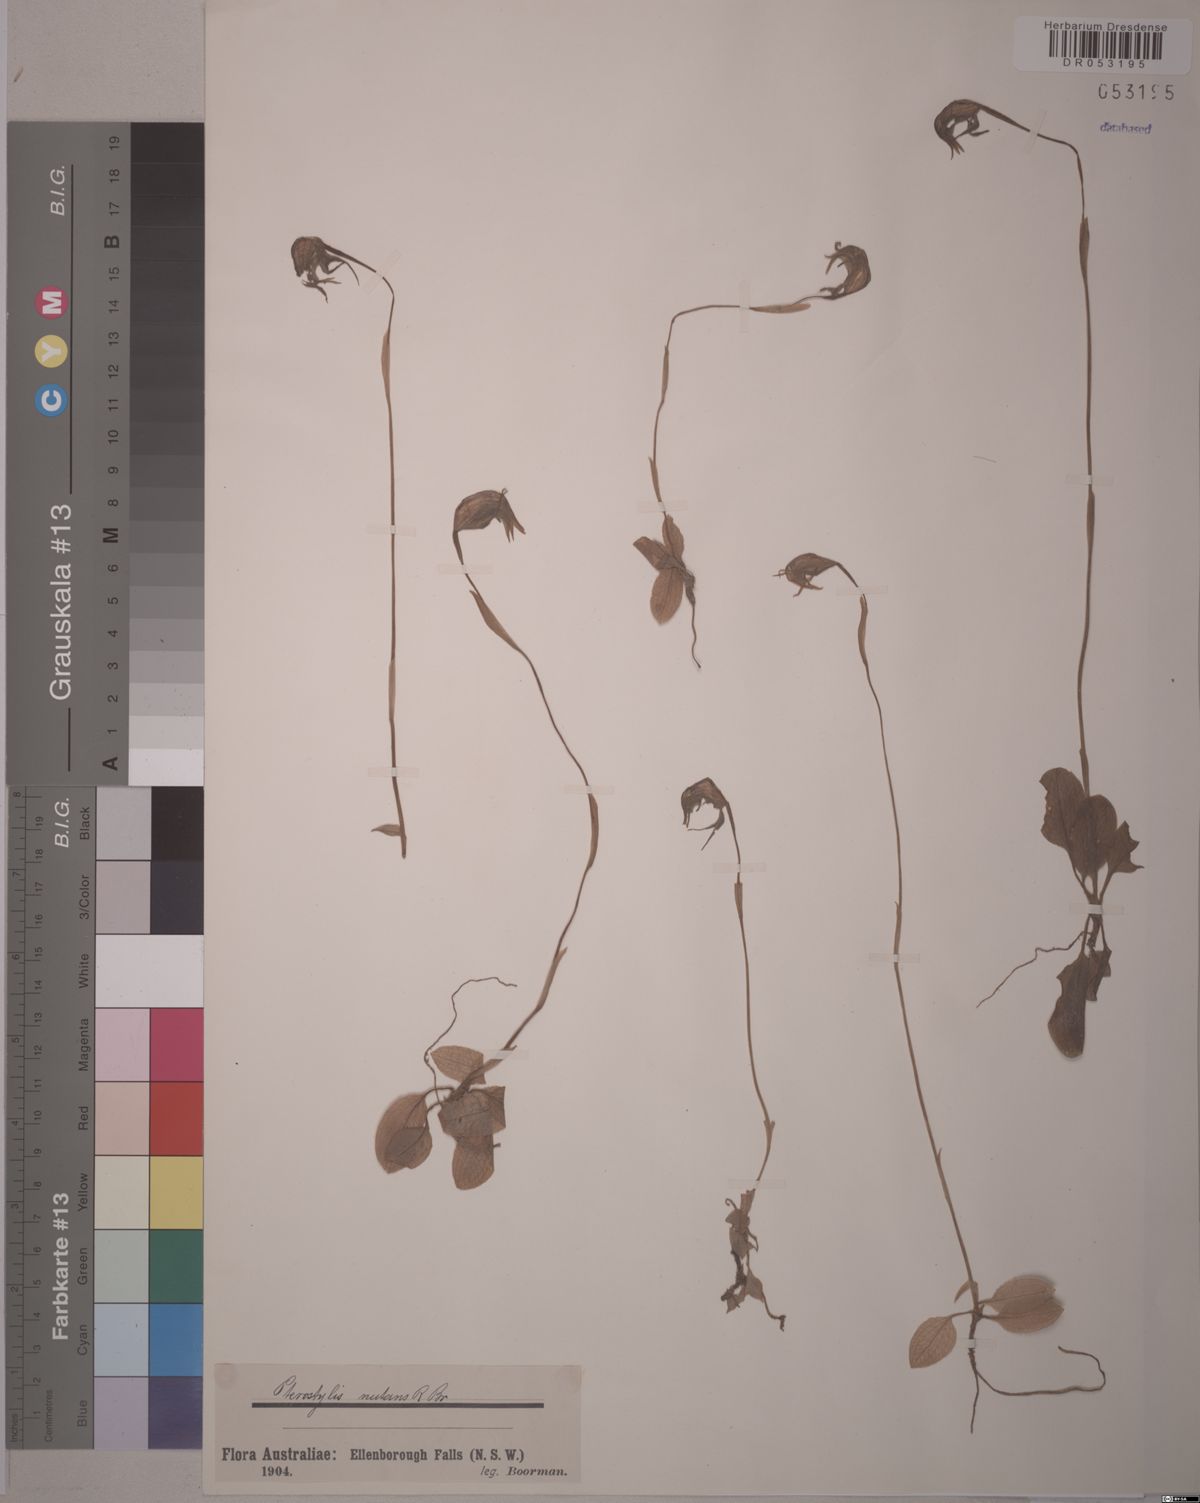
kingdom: Plantae
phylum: Tracheophyta
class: Liliopsida
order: Asparagales
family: Orchidaceae
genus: Pterostylis
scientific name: Pterostylis nutans
